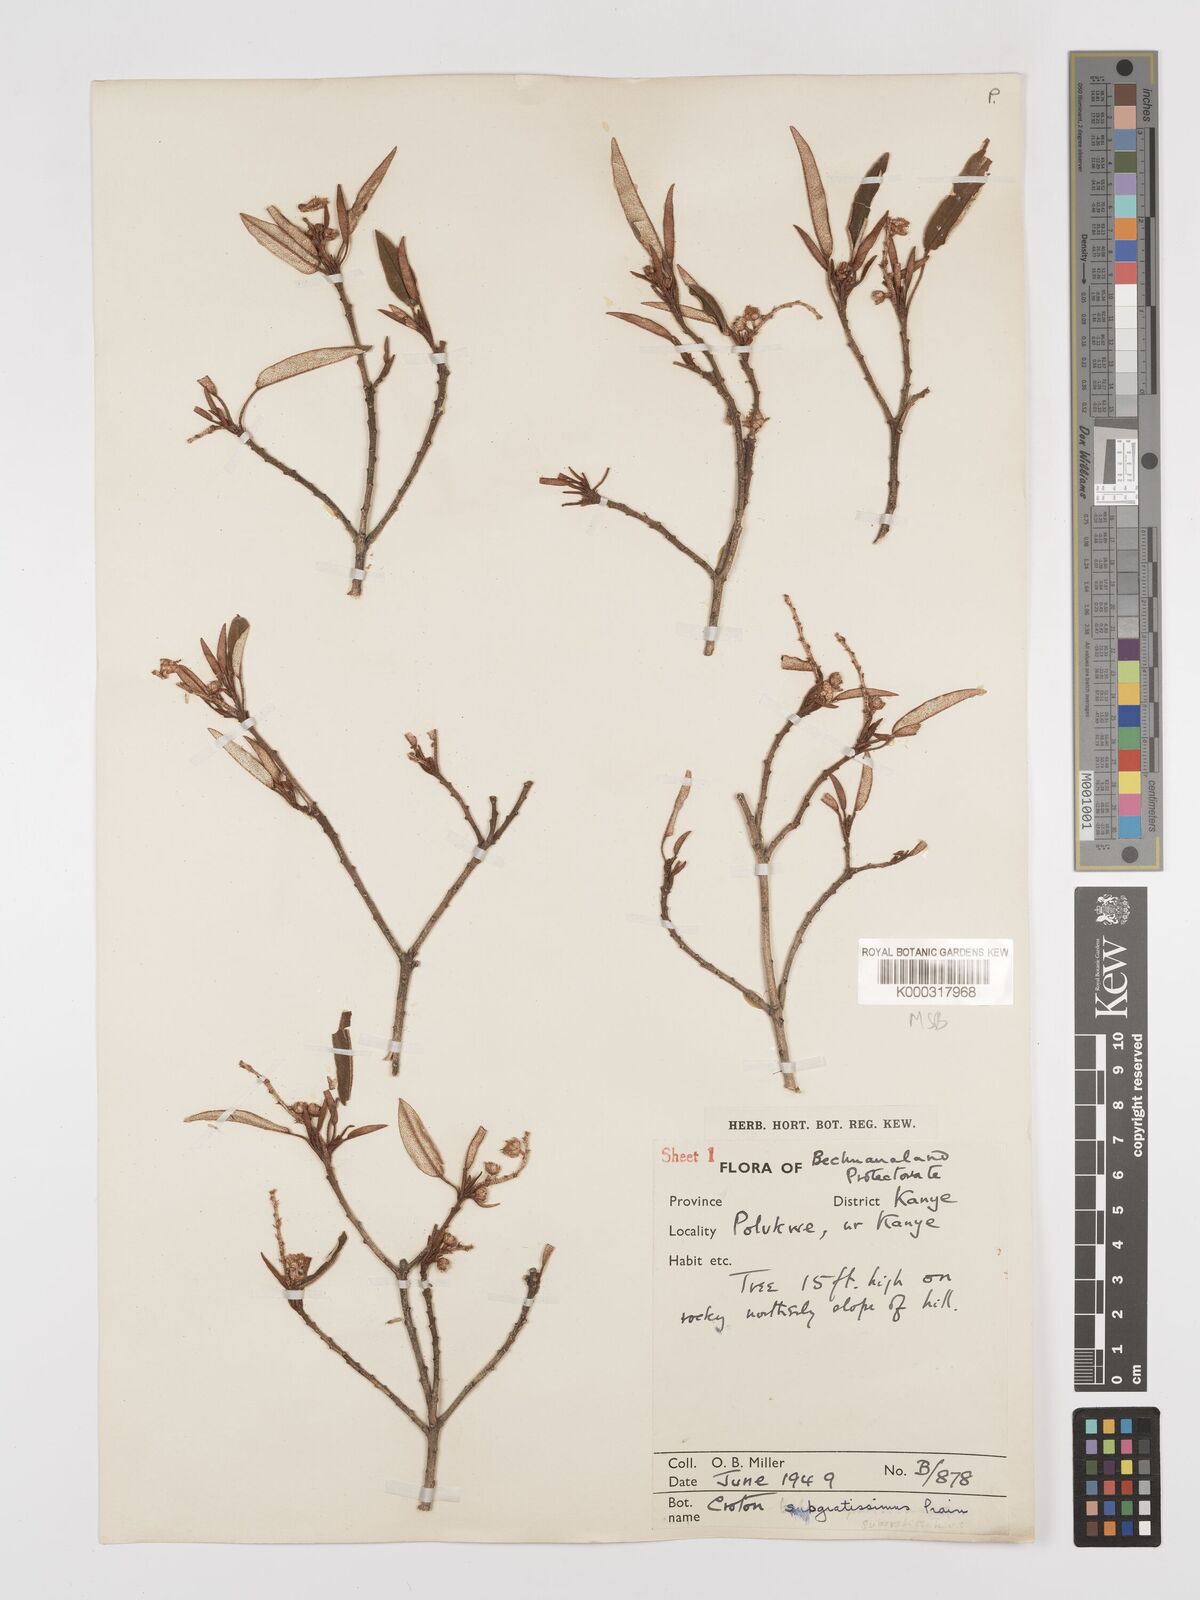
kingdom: Plantae
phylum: Tracheophyta
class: Magnoliopsida
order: Malpighiales
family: Euphorbiaceae
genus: Croton
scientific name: Croton gratissimus
